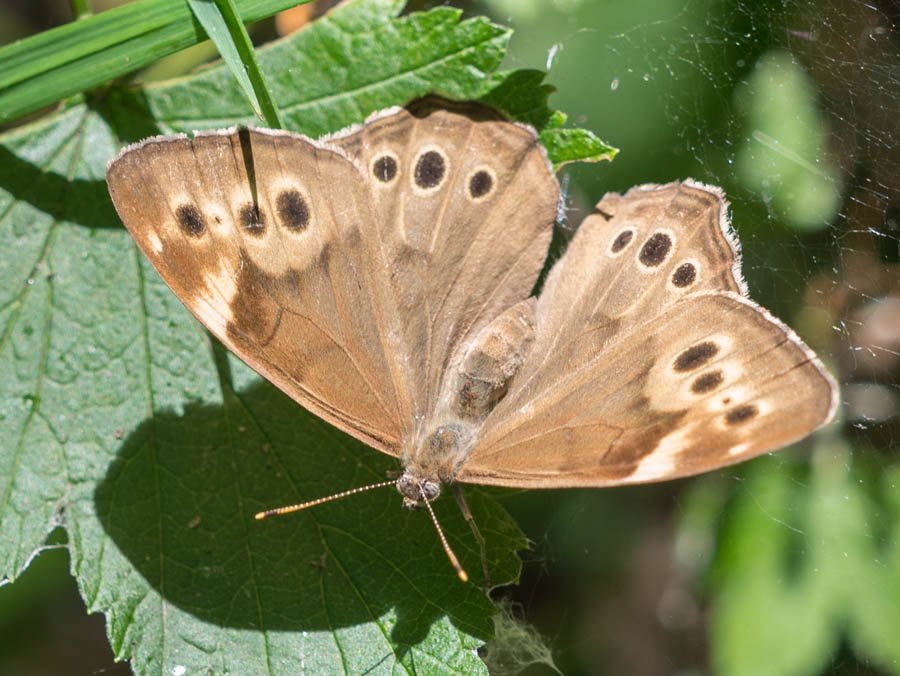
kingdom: Animalia
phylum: Arthropoda
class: Insecta
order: Lepidoptera
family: Nymphalidae
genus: Lethe
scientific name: Lethe anthedon
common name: Northern Pearly-Eye
